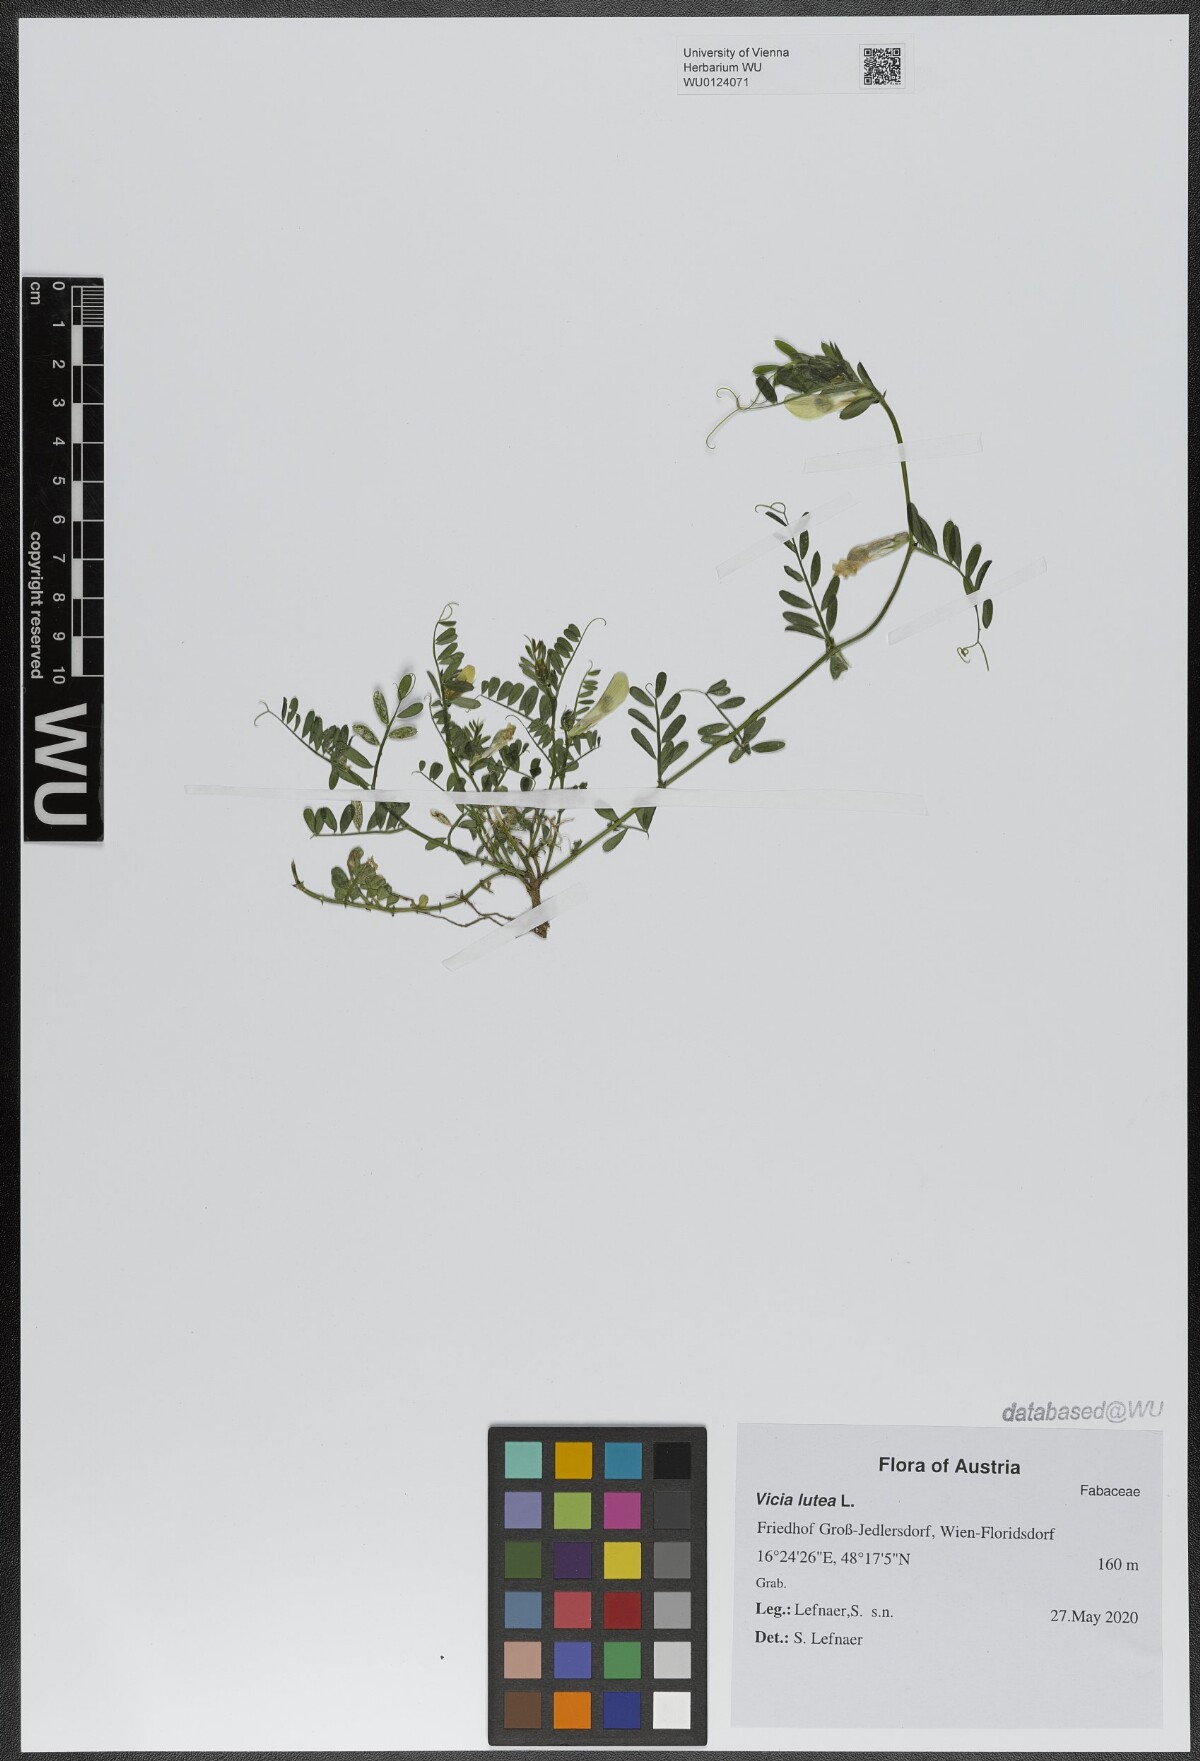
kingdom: Plantae
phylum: Tracheophyta
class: Magnoliopsida
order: Fabales
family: Fabaceae
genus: Vicia
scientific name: Vicia lutea
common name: Smooth yellow vetch
